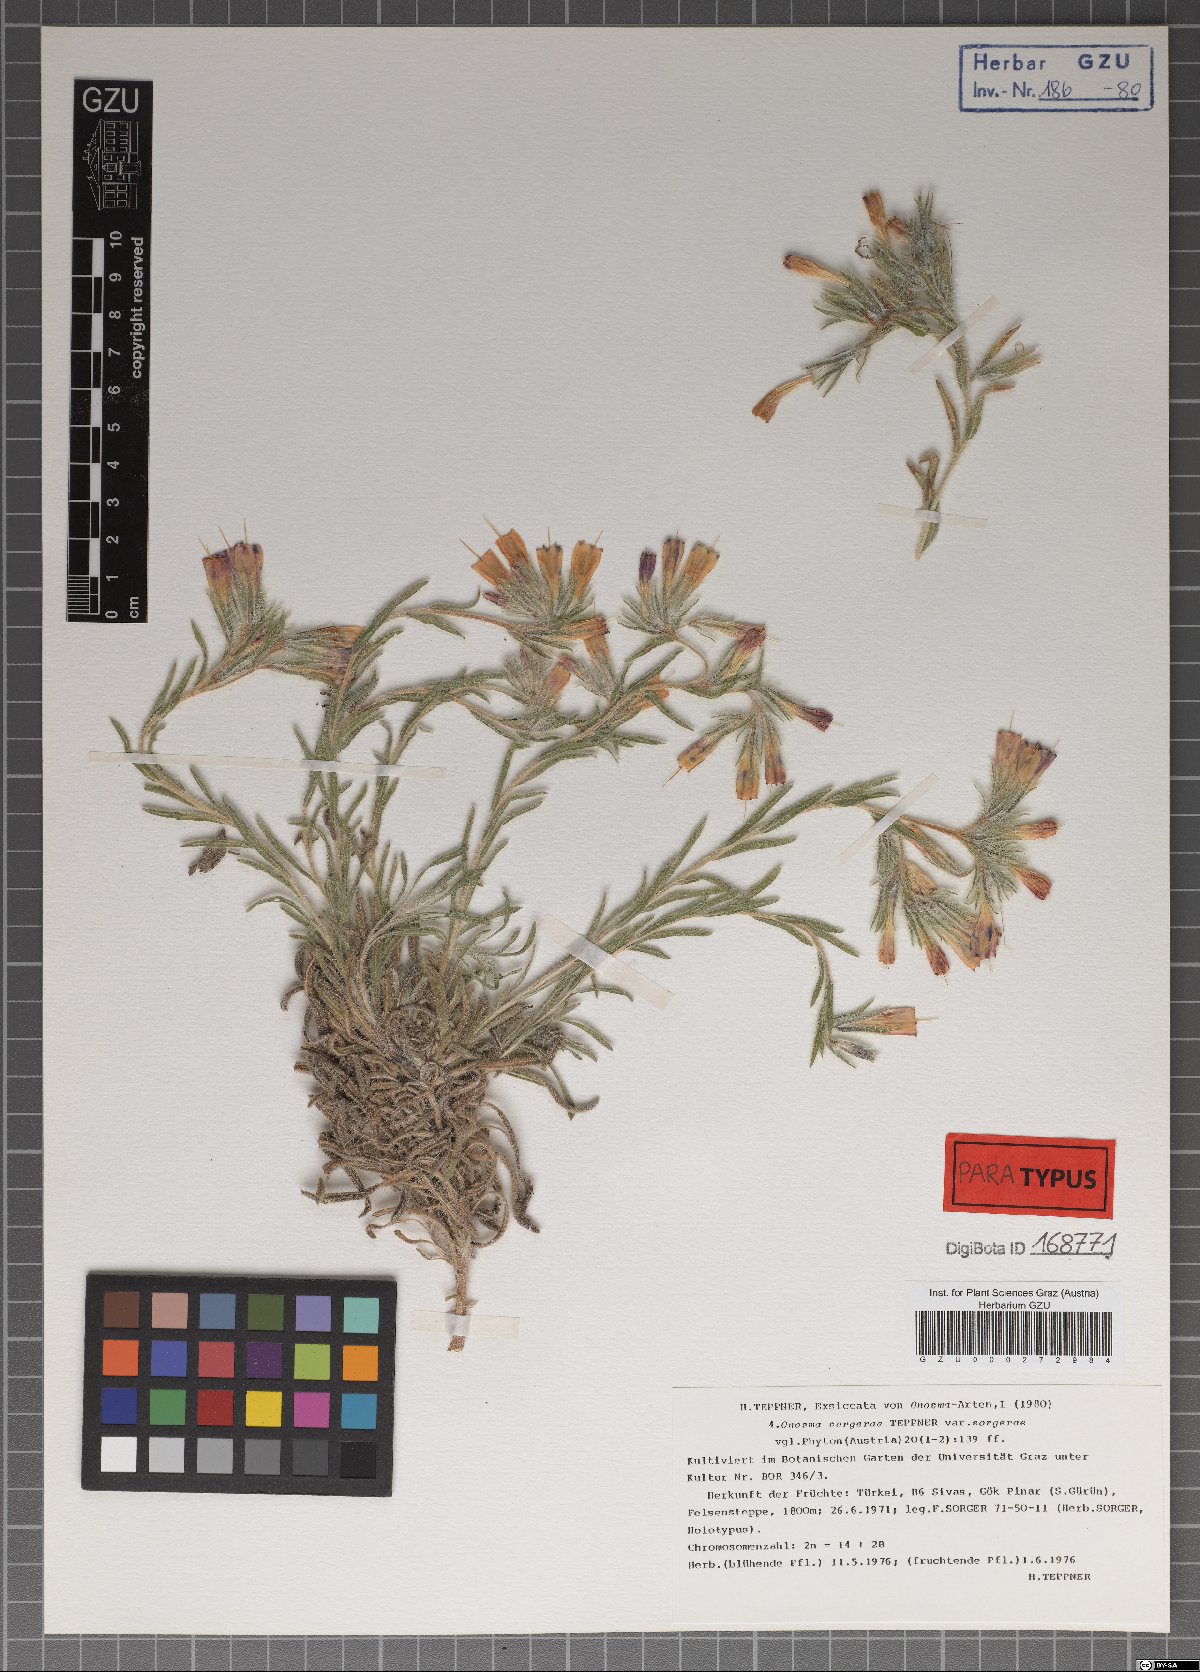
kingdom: Plantae
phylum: Tracheophyta
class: Magnoliopsida
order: Boraginales
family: Boraginaceae
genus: Onosma
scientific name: Onosma sorgerae
